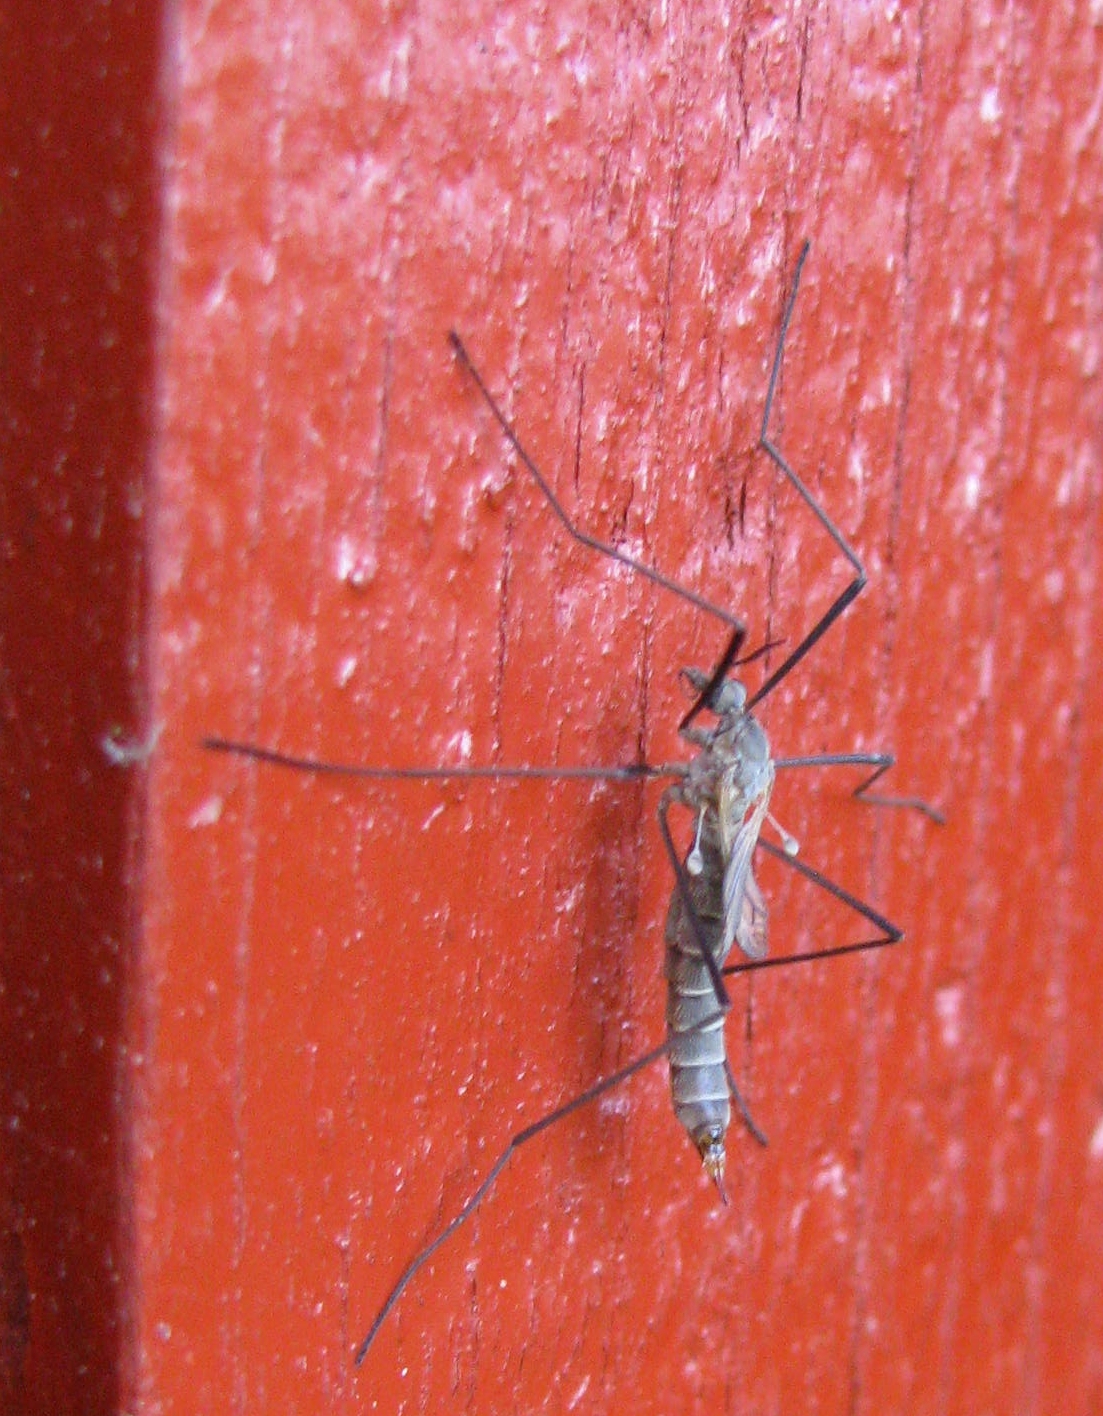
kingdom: Animalia
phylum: Arthropoda
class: Insecta
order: Diptera
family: Tipulidae
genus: Tipula
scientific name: Tipula pagana
